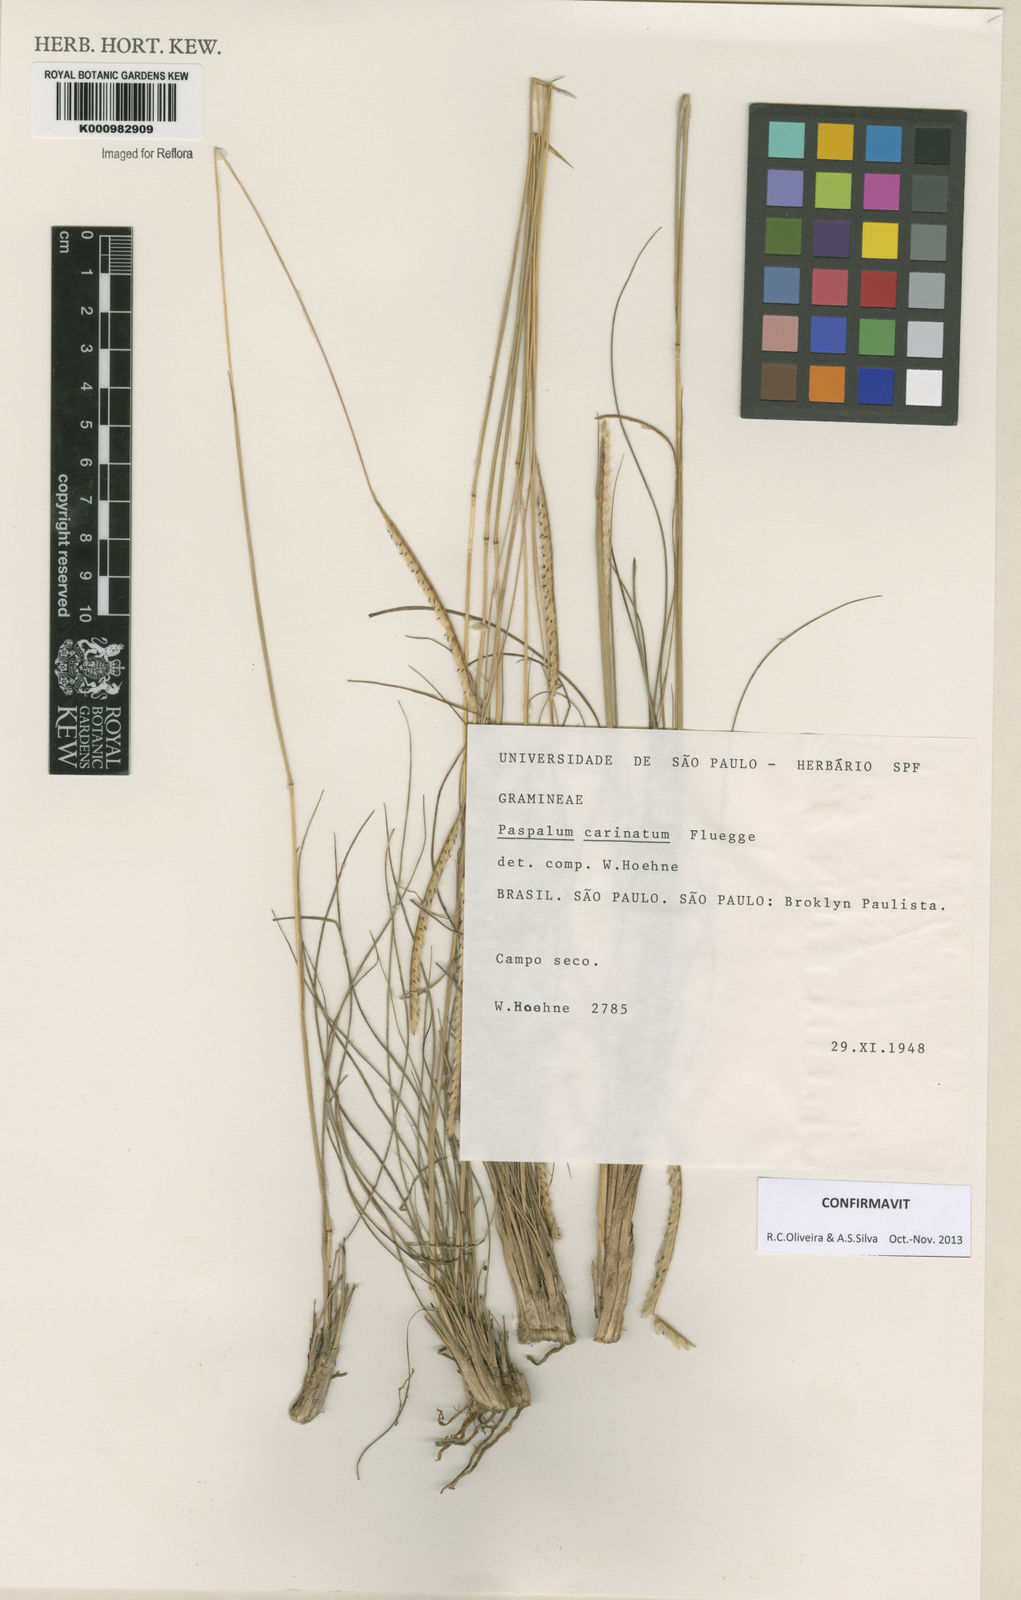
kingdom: Plantae
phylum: Tracheophyta
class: Liliopsida
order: Poales
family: Poaceae
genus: Paspalum
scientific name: Paspalum
